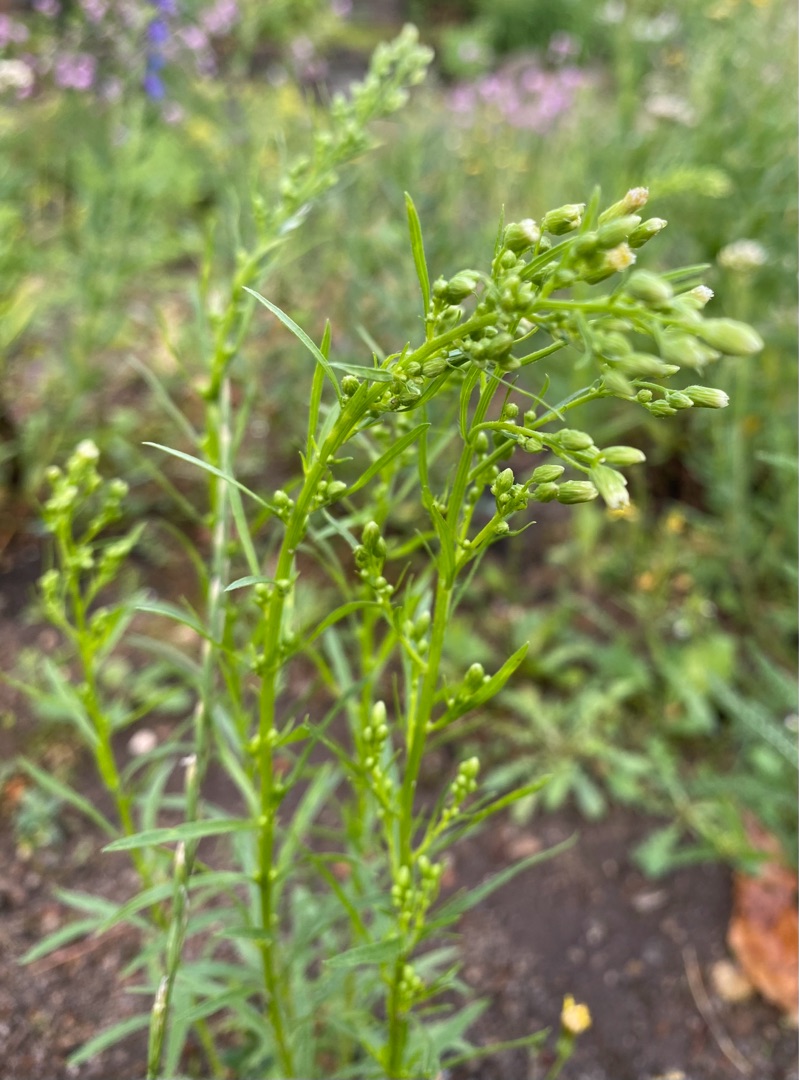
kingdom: Plantae
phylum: Tracheophyta
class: Magnoliopsida
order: Asterales
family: Asteraceae
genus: Erigeron
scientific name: Erigeron canadensis
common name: Kanadisk bakkestjerne
